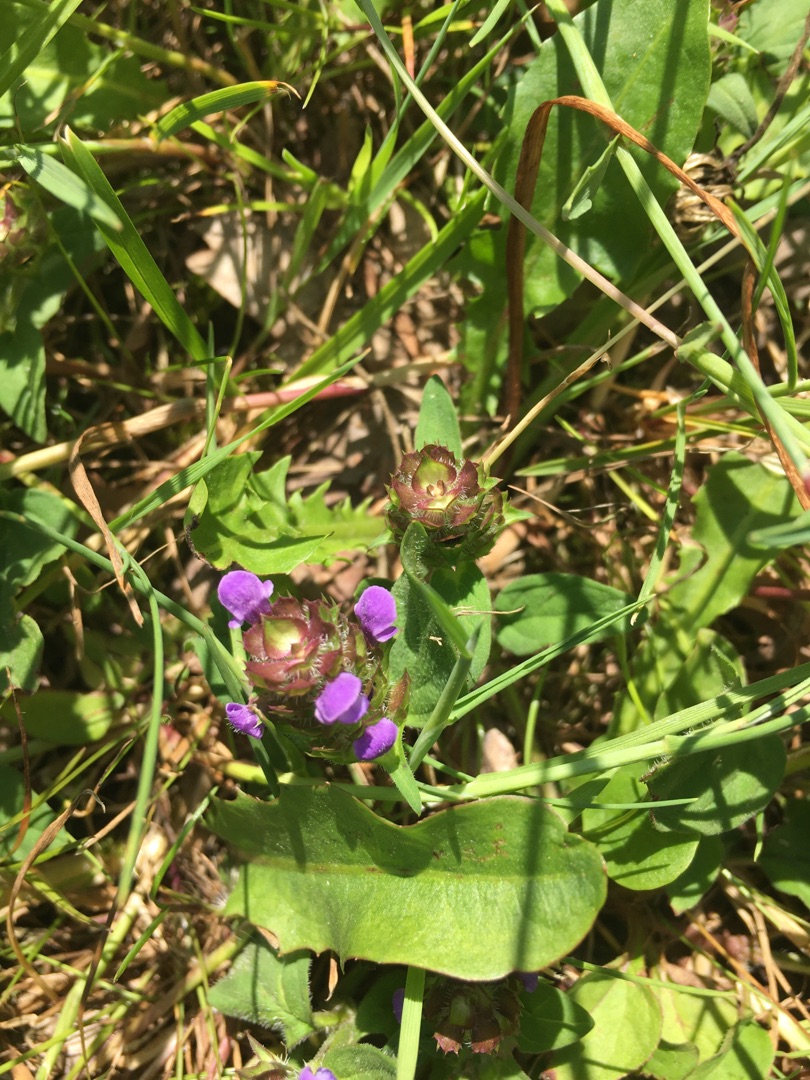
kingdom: Plantae
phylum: Tracheophyta
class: Magnoliopsida
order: Lamiales
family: Lamiaceae
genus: Prunella
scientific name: Prunella vulgaris
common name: Almindelig brunelle
